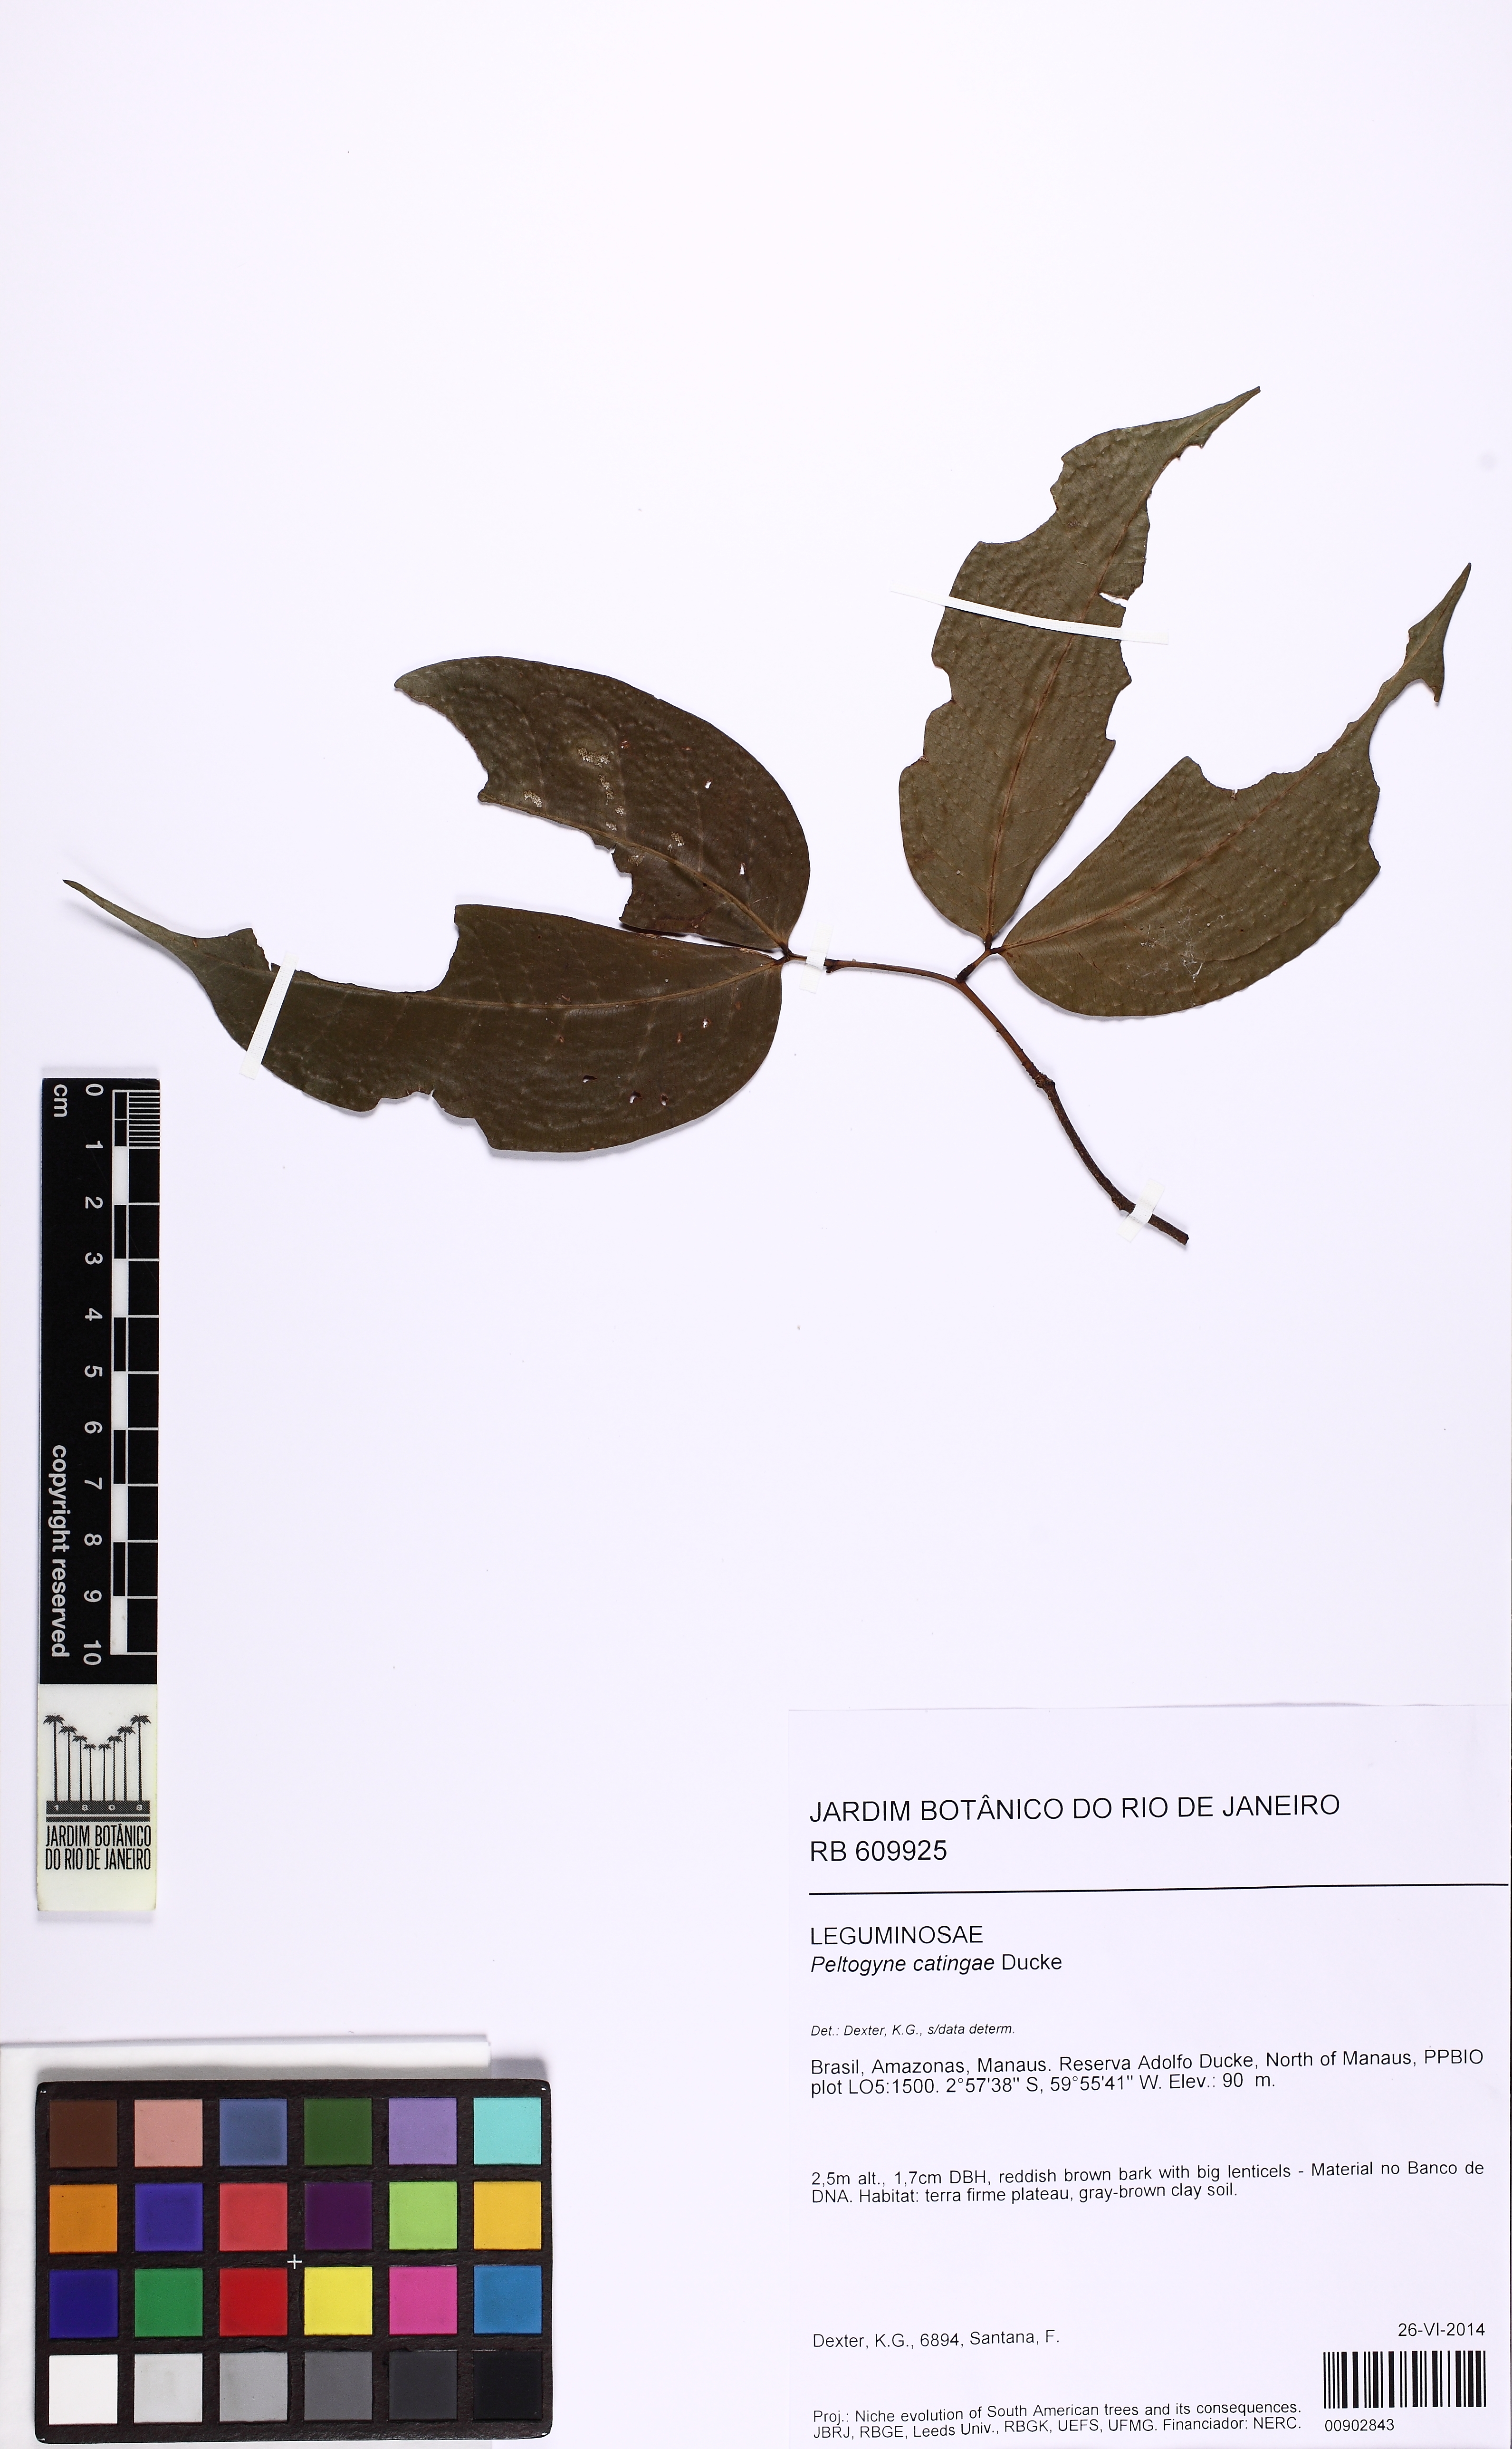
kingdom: Plantae
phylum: Tracheophyta
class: Magnoliopsida
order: Fabales
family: Fabaceae
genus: Peltogyne
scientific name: Peltogyne catingae
